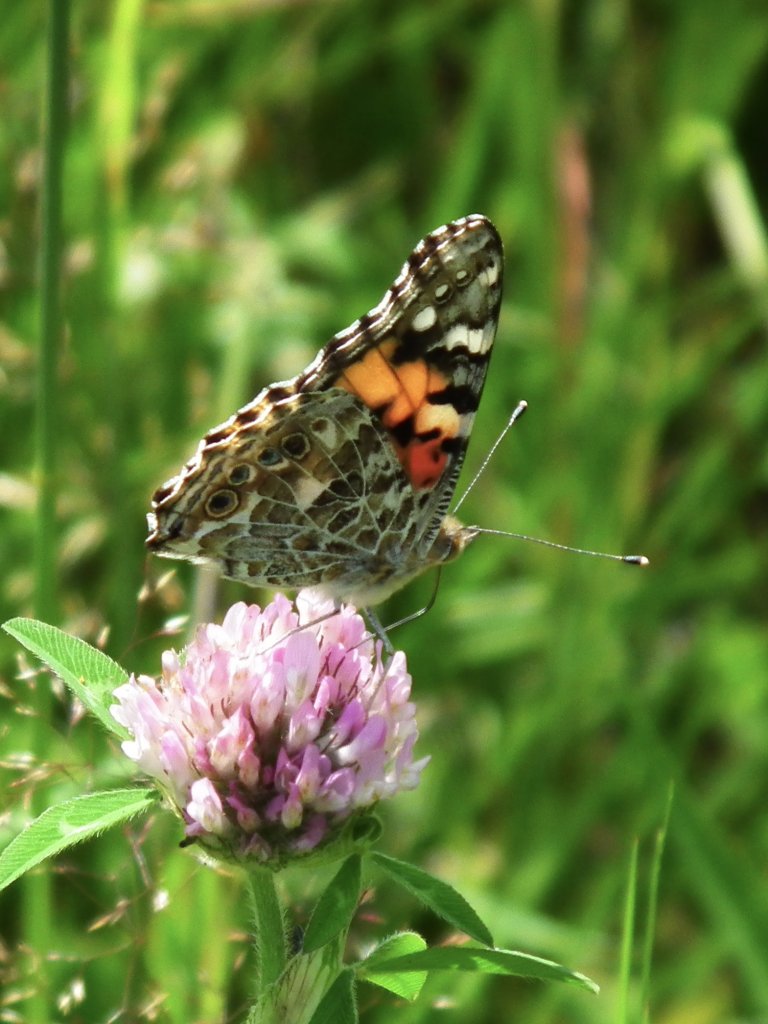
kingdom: Animalia
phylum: Arthropoda
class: Insecta
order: Lepidoptera
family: Nymphalidae
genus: Vanessa
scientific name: Vanessa cardui
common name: Painted Lady
